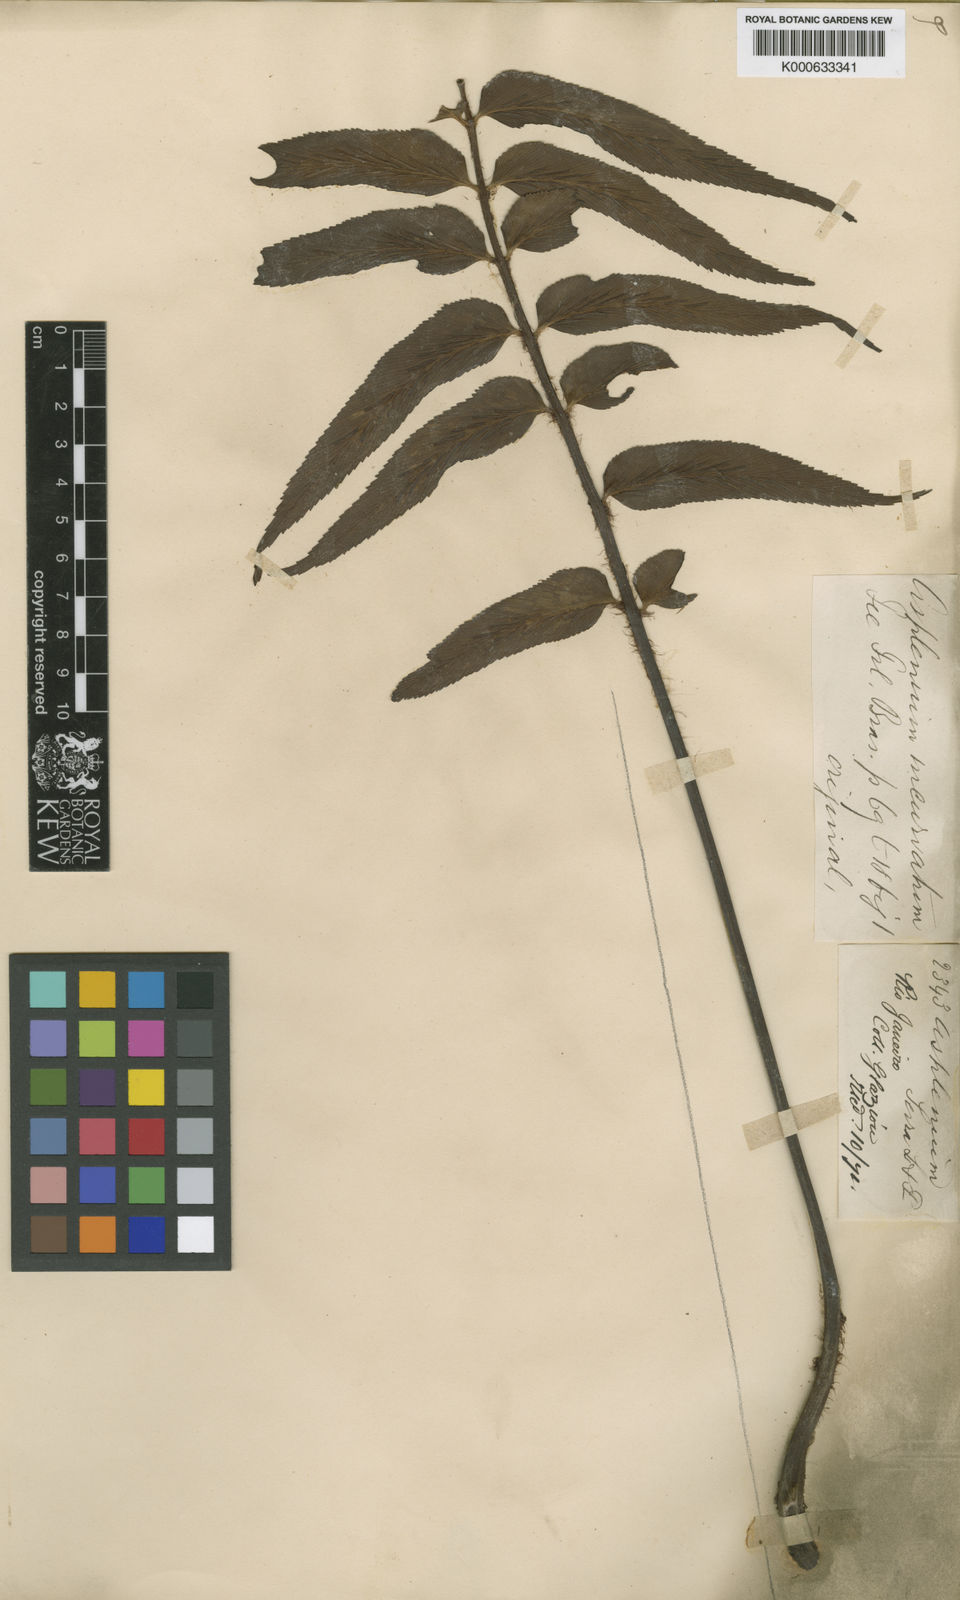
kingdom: Plantae
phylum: Tracheophyta
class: Polypodiopsida
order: Polypodiales
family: Aspleniaceae
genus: Asplenium
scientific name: Asplenium serra
